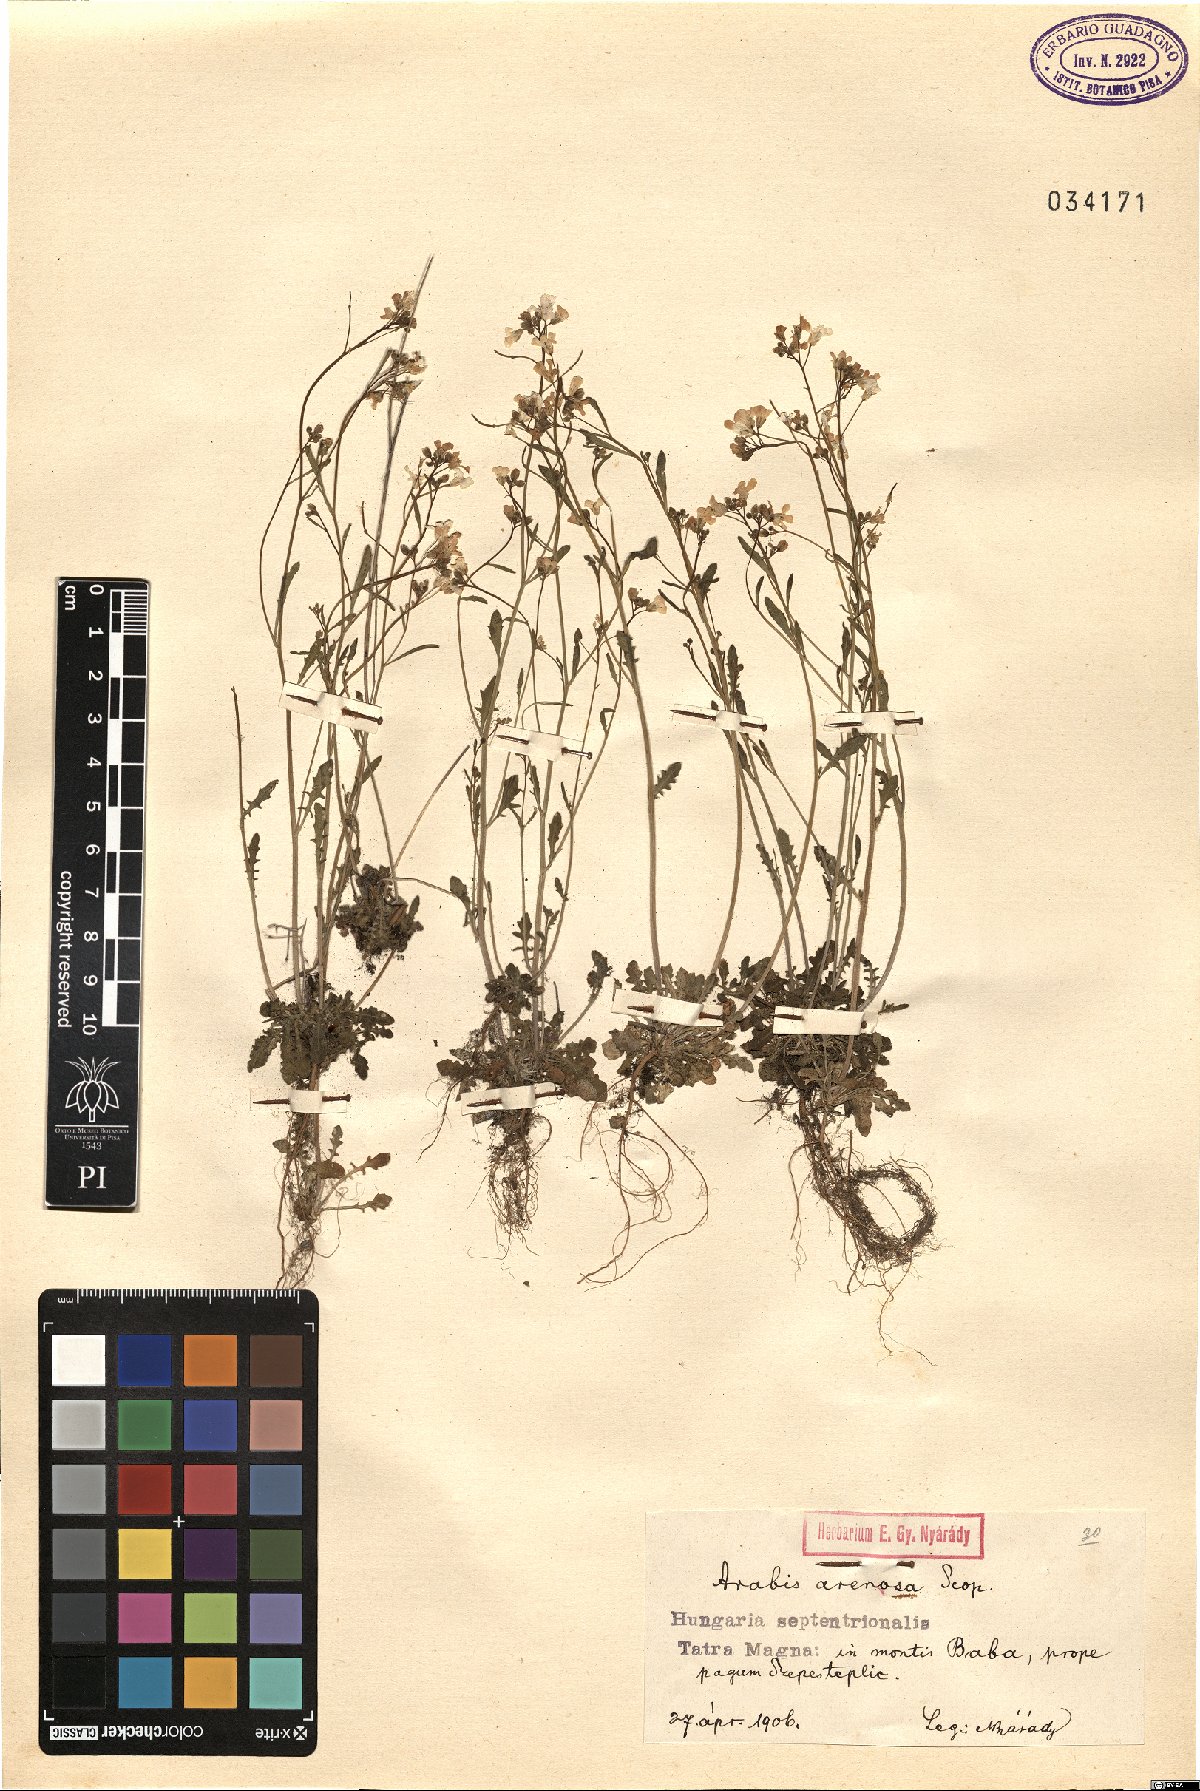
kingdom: Plantae
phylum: Tracheophyta
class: Magnoliopsida
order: Brassicales
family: Brassicaceae
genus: Arabidopsis
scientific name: Arabidopsis arenosa
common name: Sand rock-cress
